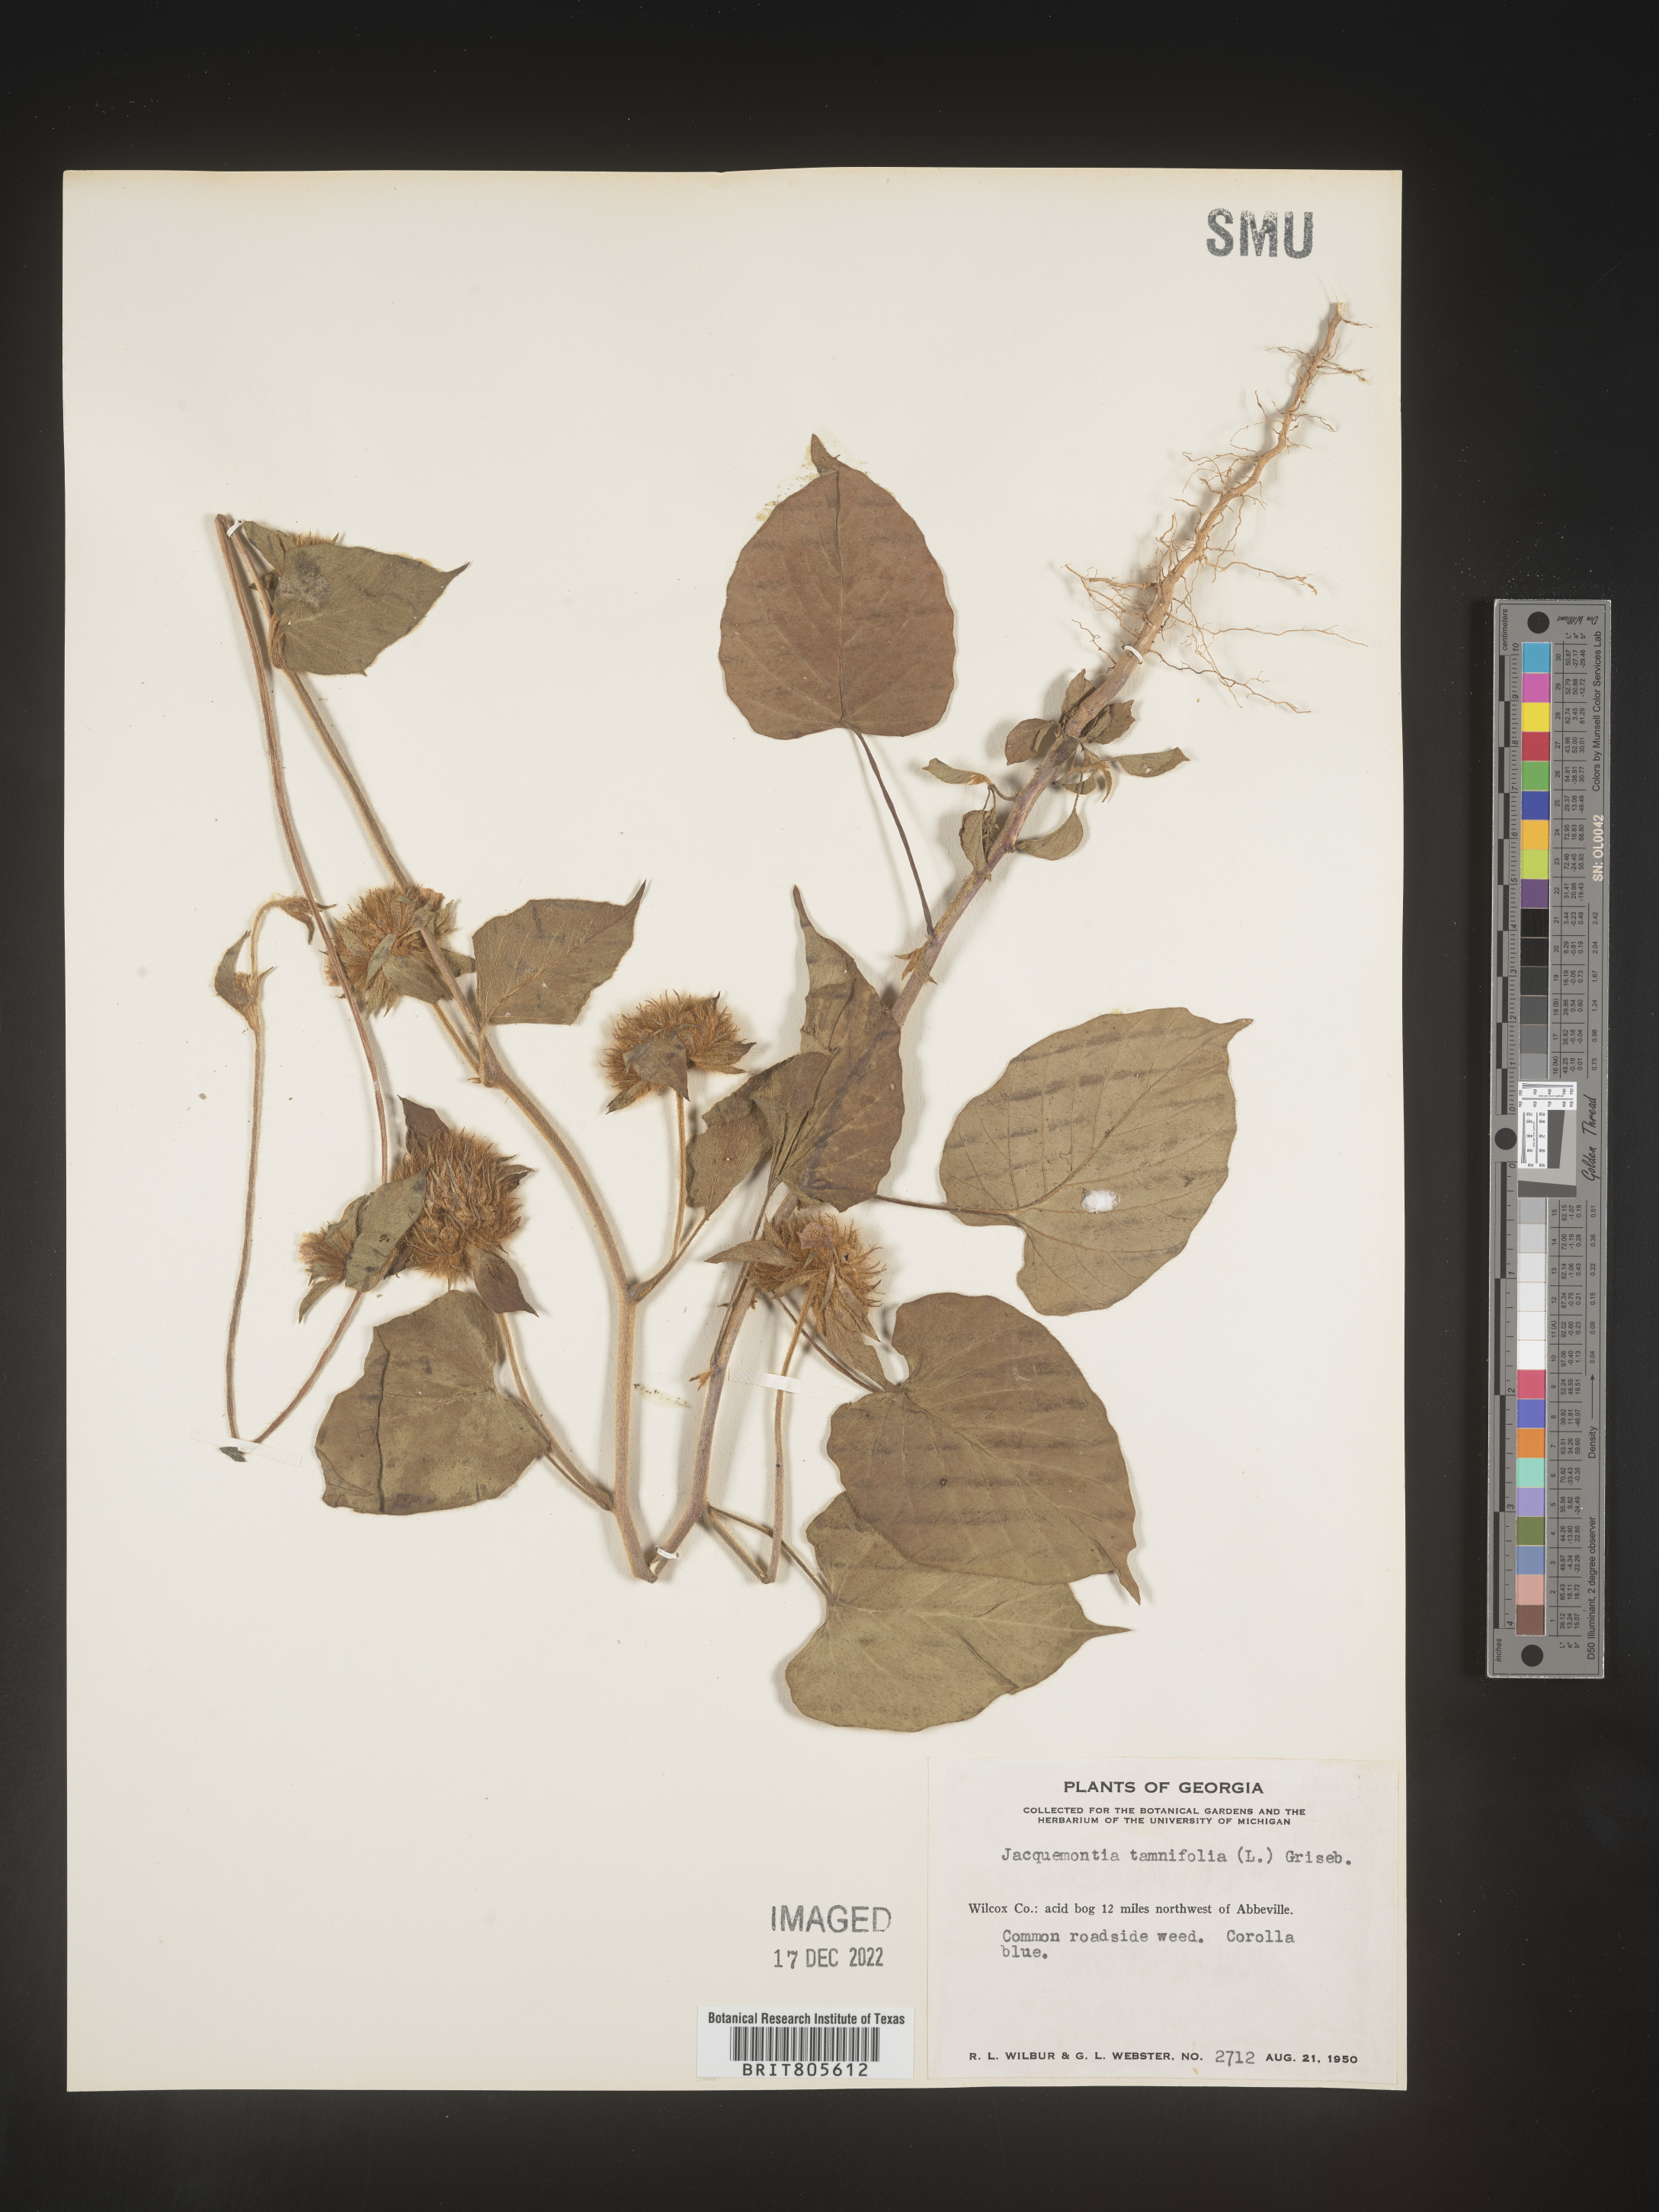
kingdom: Plantae
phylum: Tracheophyta
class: Magnoliopsida
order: Solanales
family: Convolvulaceae
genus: Jacquemontia
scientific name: Jacquemontia tamnifolia
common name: Hairy clustervine
